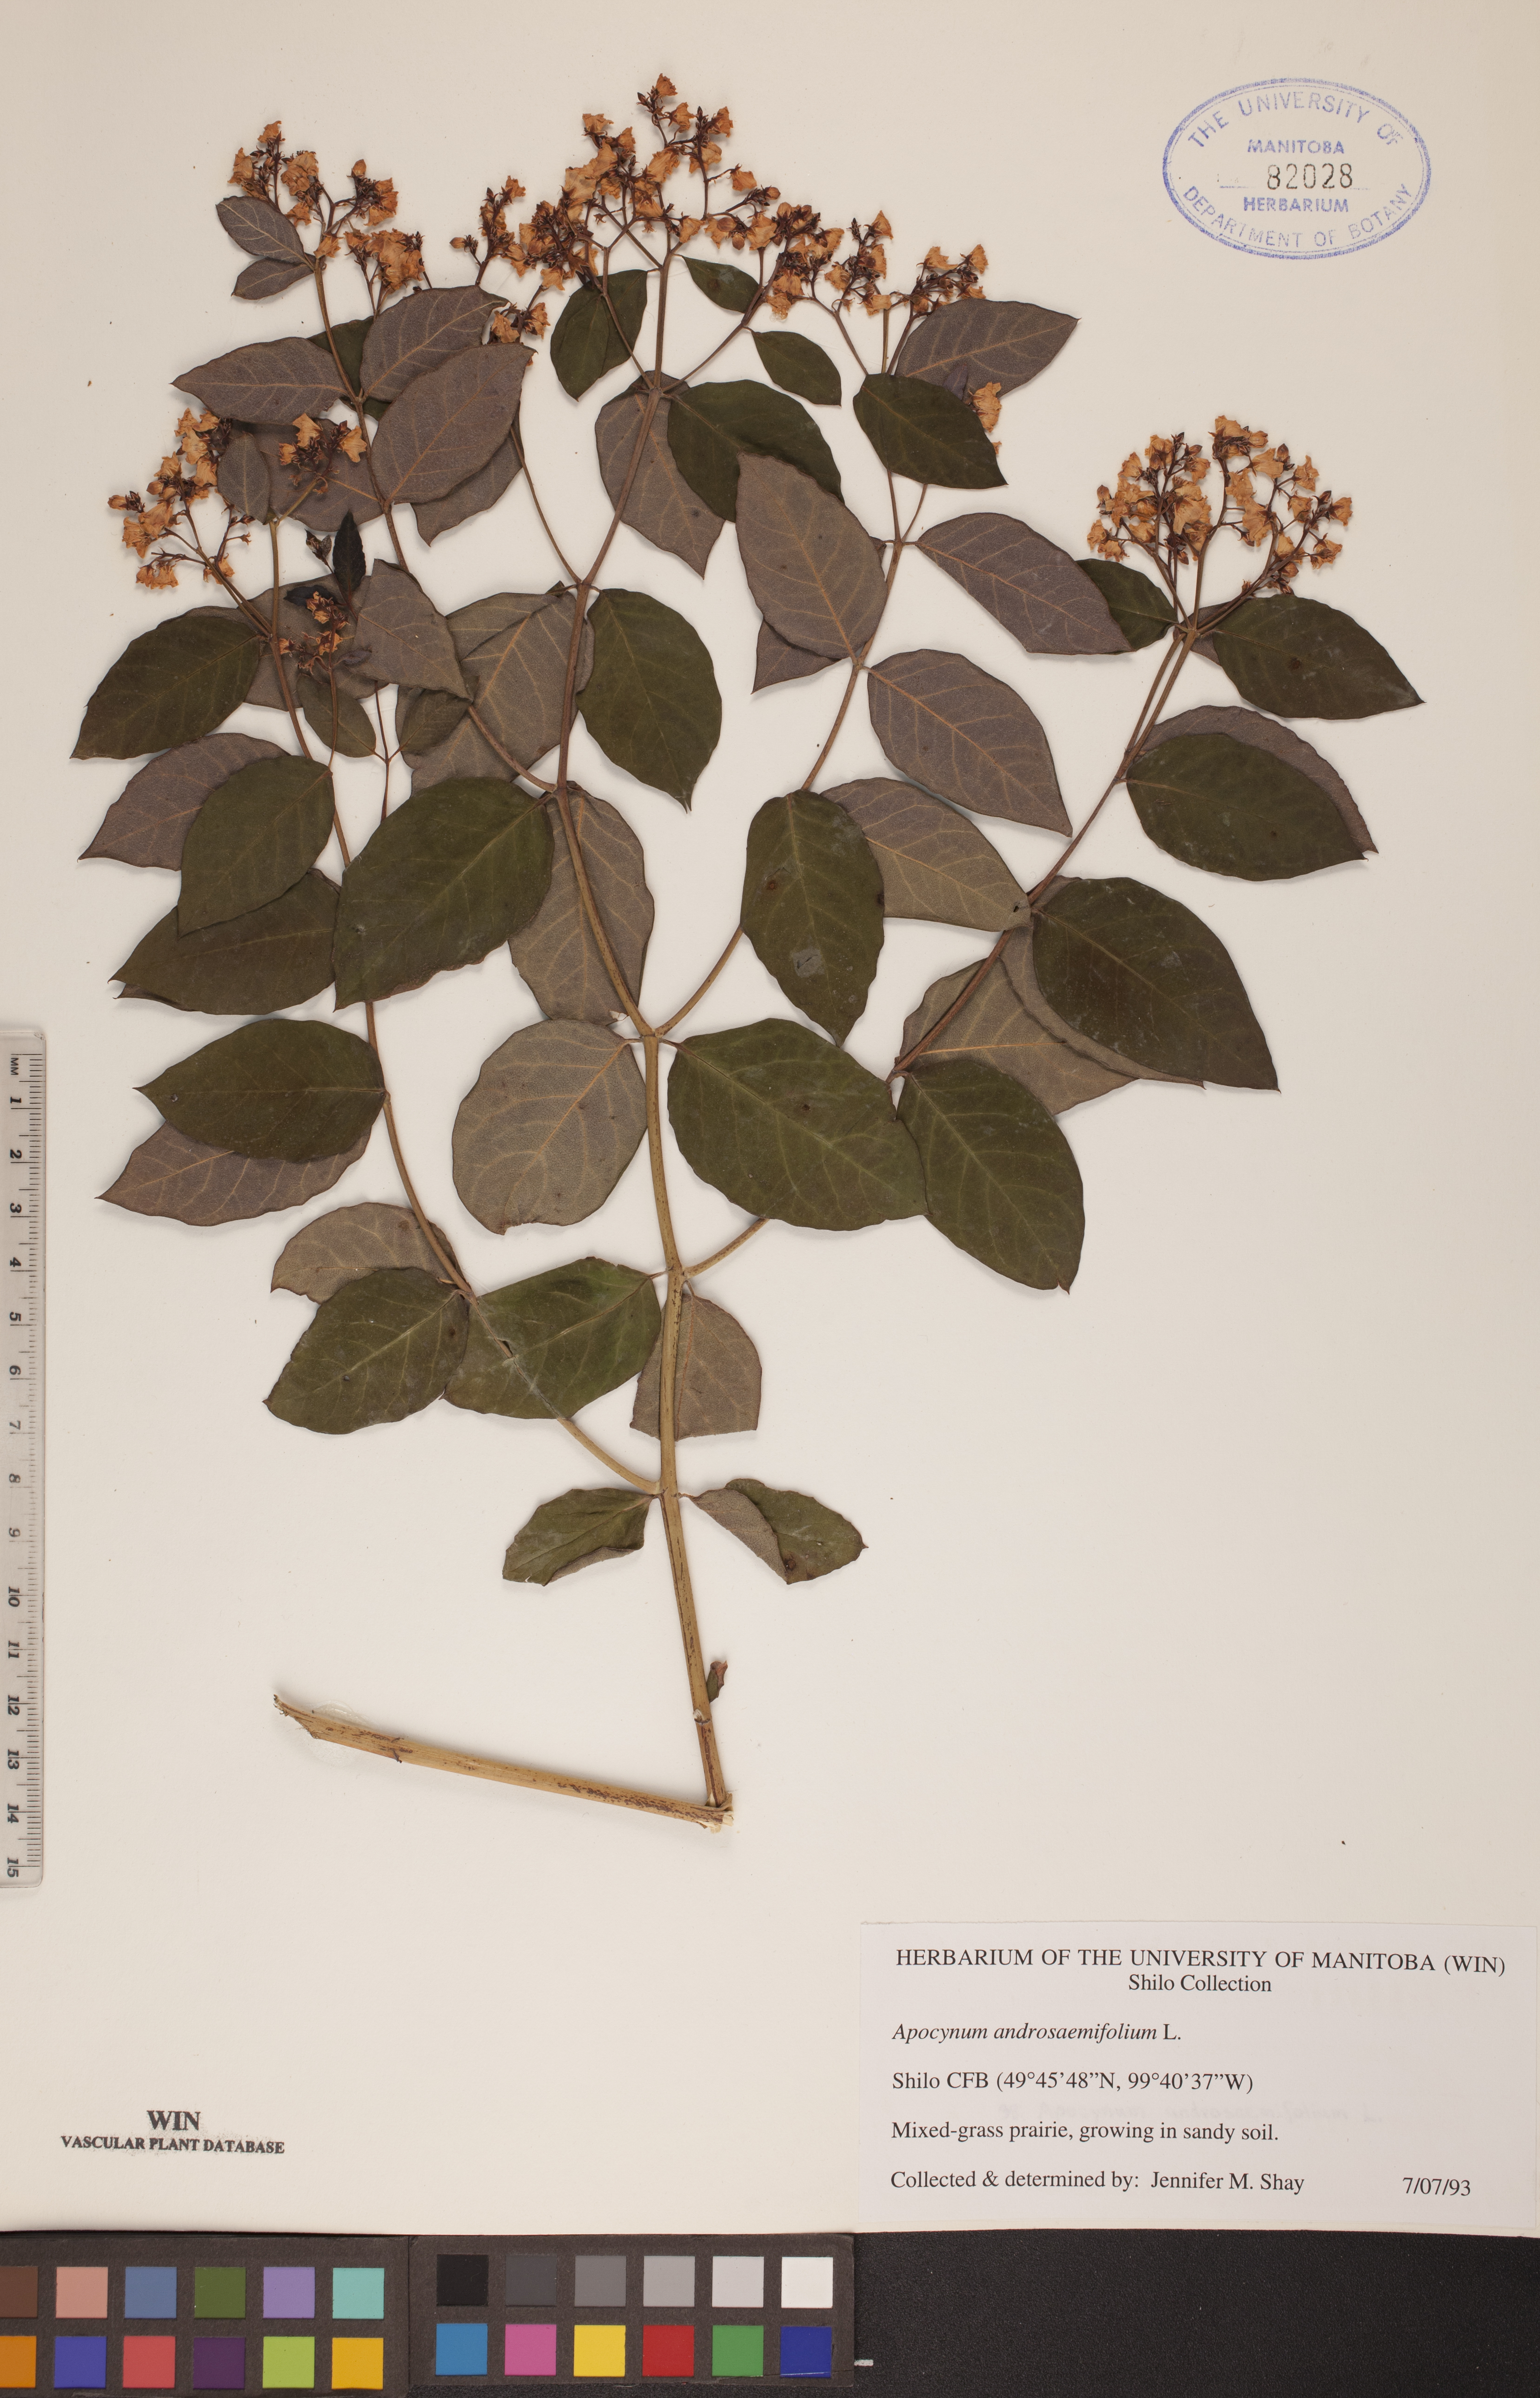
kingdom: Plantae
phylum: Tracheophyta
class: Magnoliopsida
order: Gentianales
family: Apocynaceae
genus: Apocynum
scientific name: Apocynum androsaemifolium
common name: Spreading dogbane
